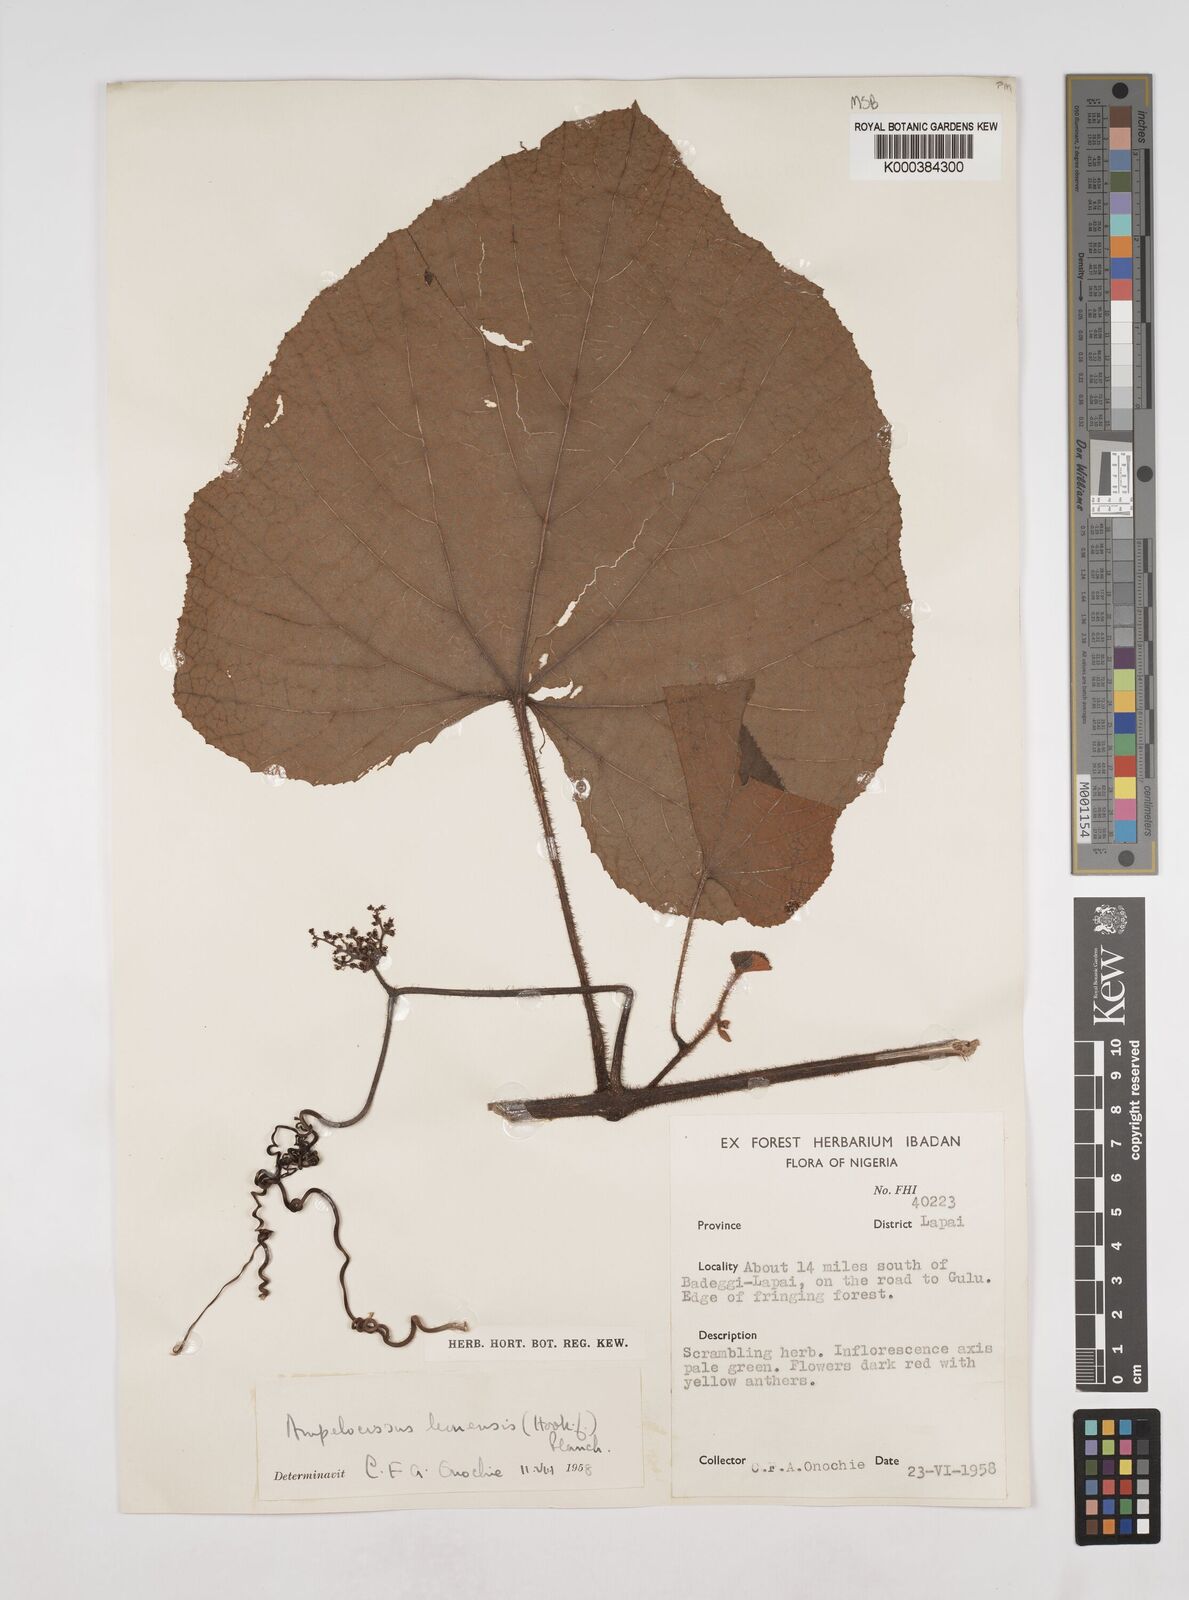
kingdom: Plantae
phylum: Tracheophyta
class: Magnoliopsida
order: Vitales
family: Vitaceae
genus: Ampelocissus
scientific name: Ampelocissus leonensis
